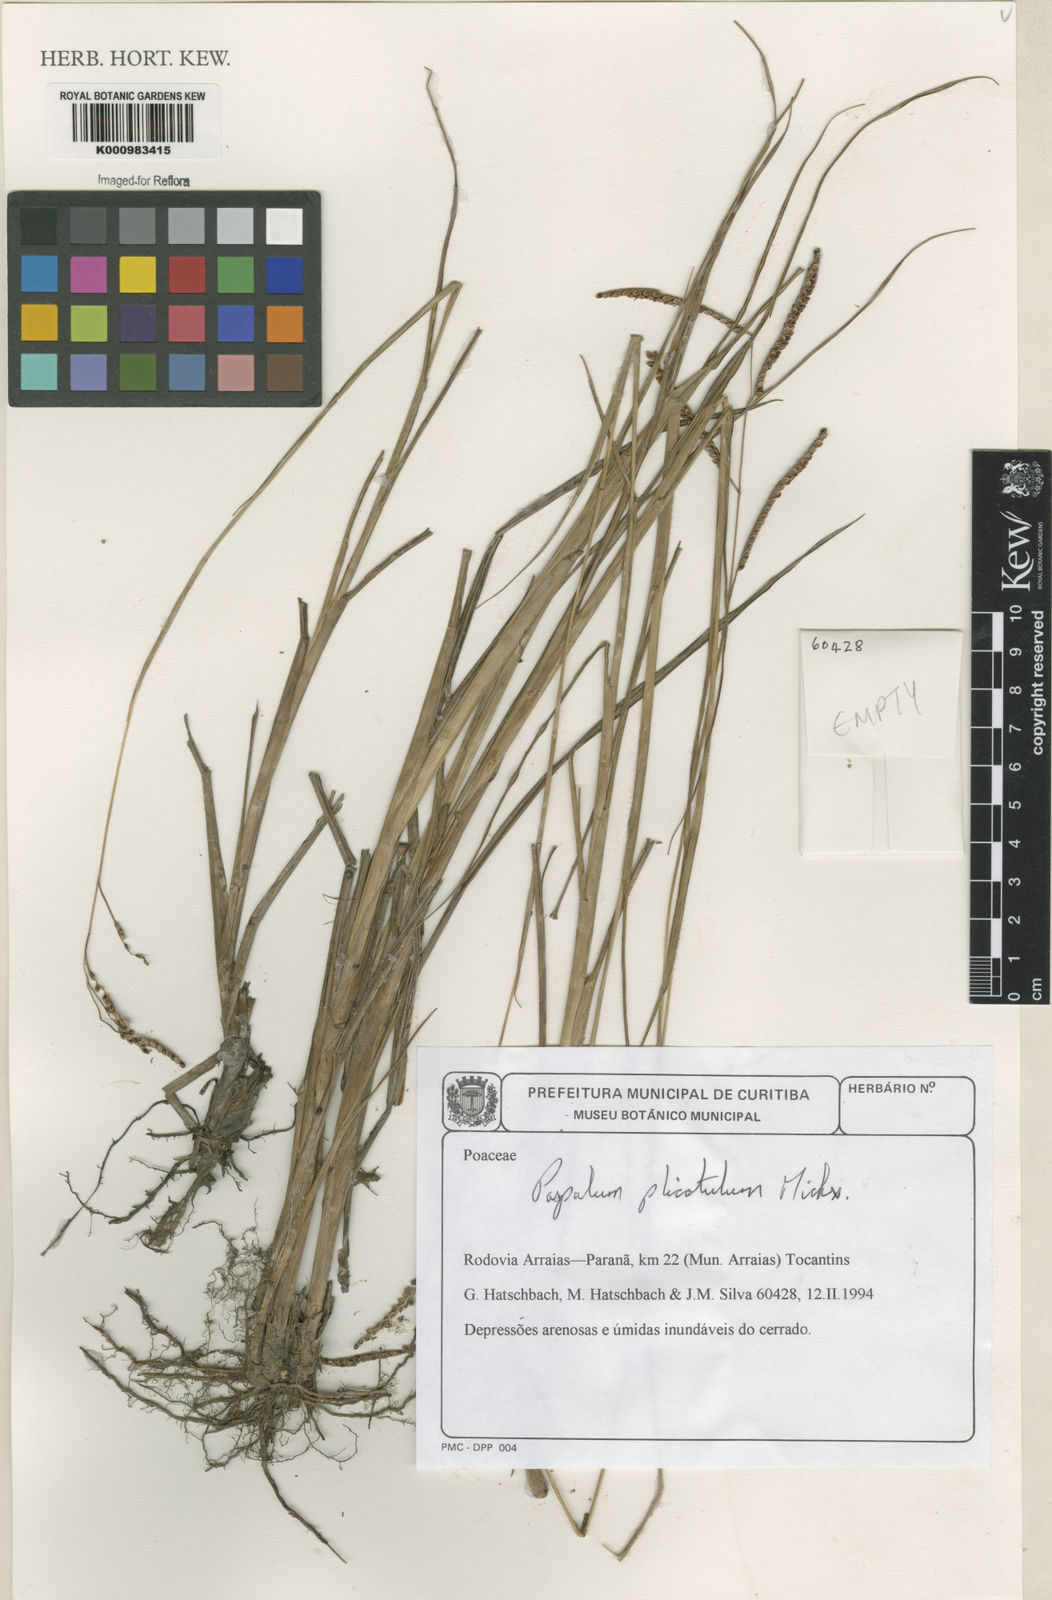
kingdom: Plantae
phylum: Tracheophyta
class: Liliopsida
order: Poales
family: Poaceae
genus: Paspalum
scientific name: Paspalum plicatulum
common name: Top paspalum
